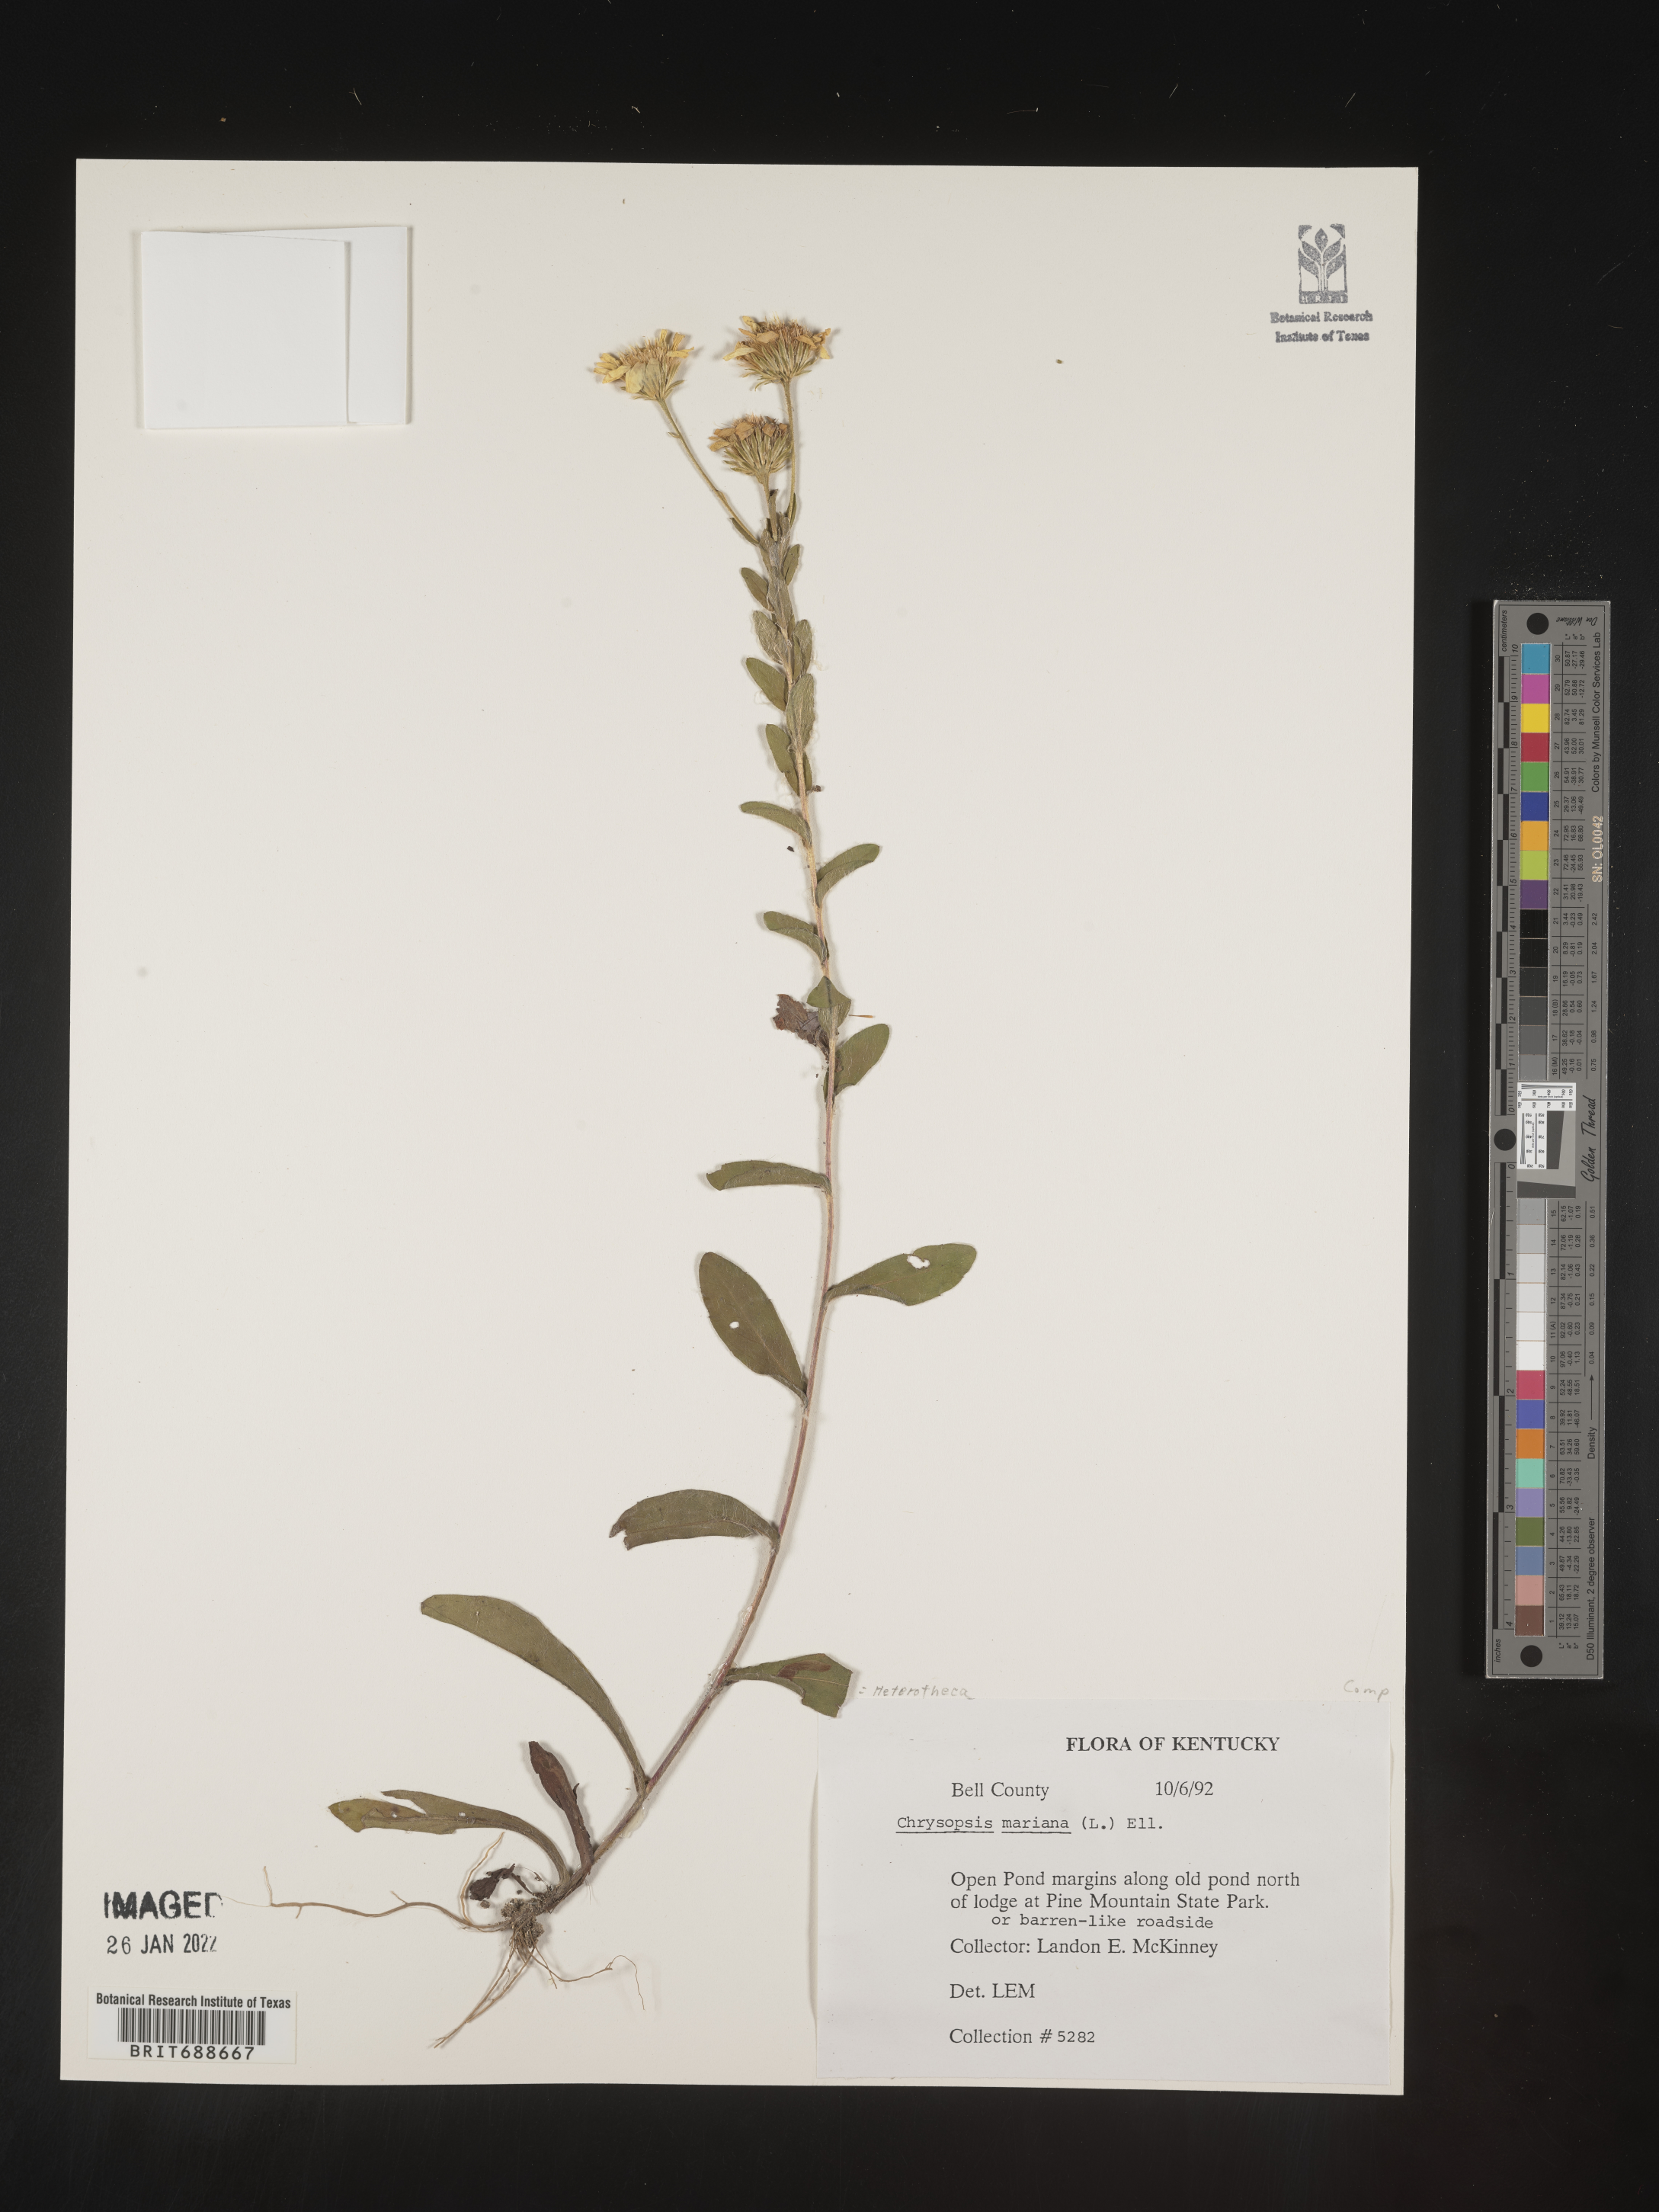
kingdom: Plantae
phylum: Tracheophyta
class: Magnoliopsida
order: Asterales
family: Asteraceae
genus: Chrysopsis
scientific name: Chrysopsis mariana
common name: Maryland golden-aster
